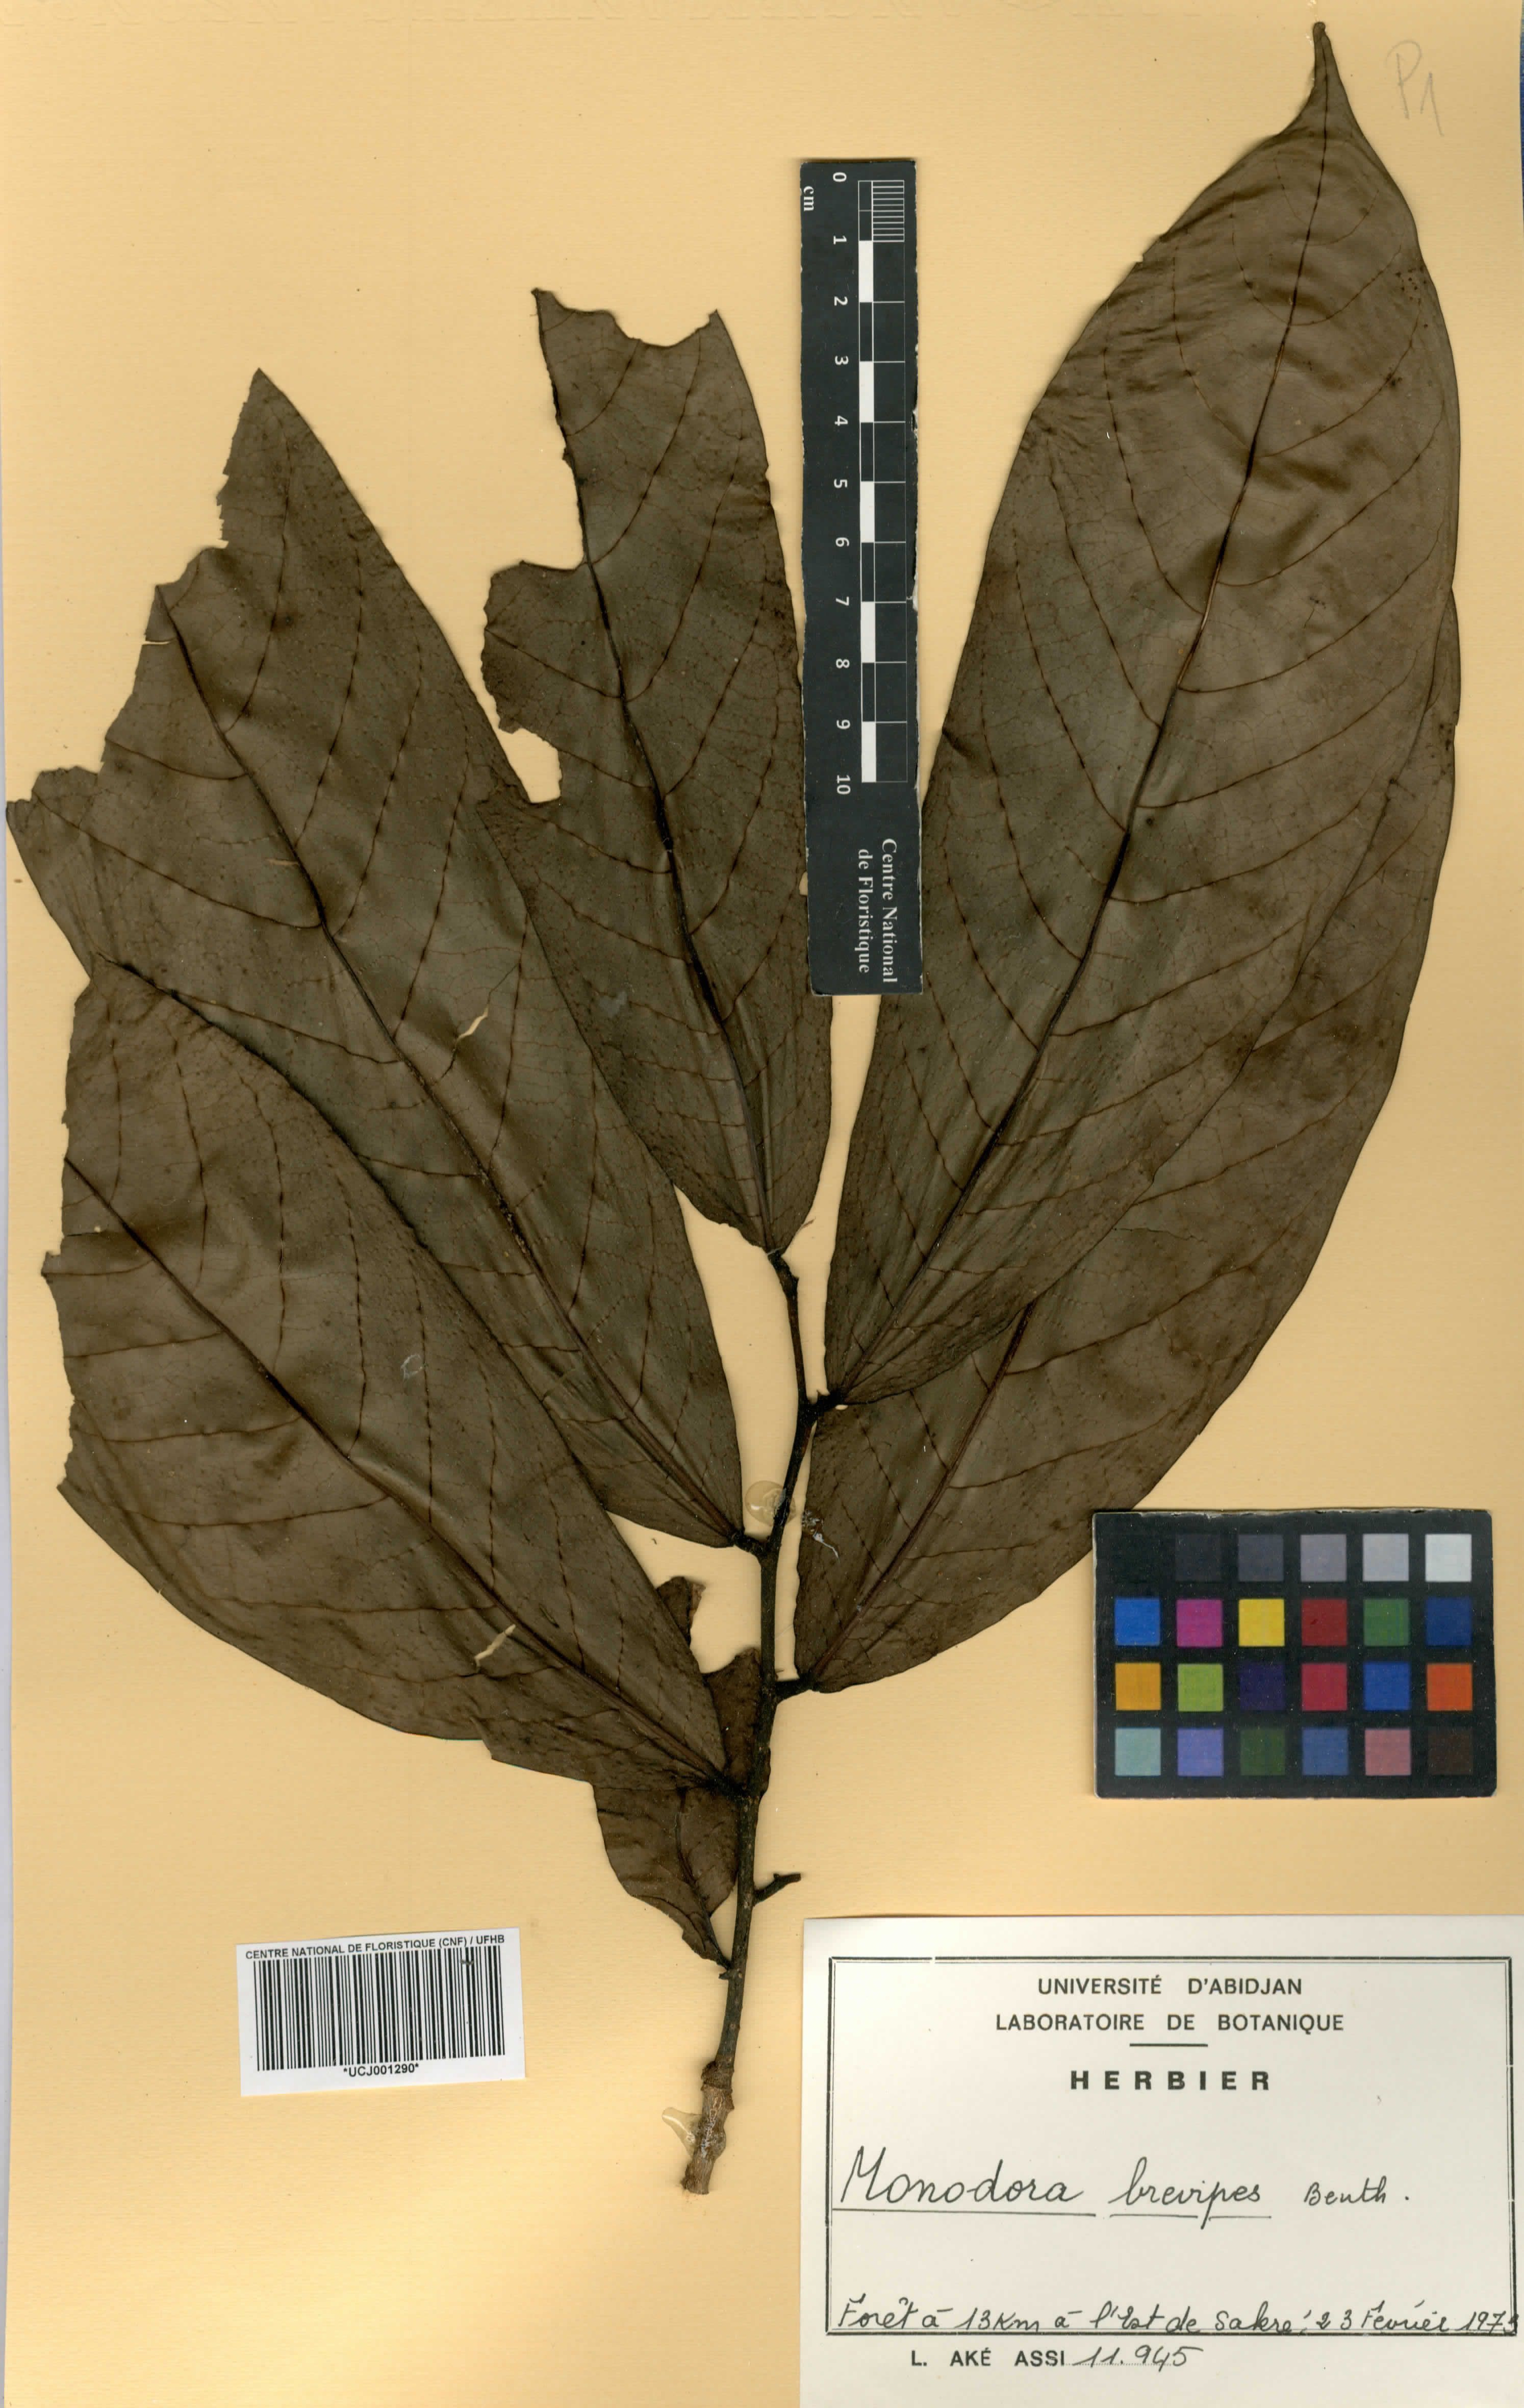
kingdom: Plantae
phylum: Tracheophyta
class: Magnoliopsida
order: Magnoliales
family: Annonaceae
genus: Monodora
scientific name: Monodora undulata
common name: Yellow-flower-nutmeg
